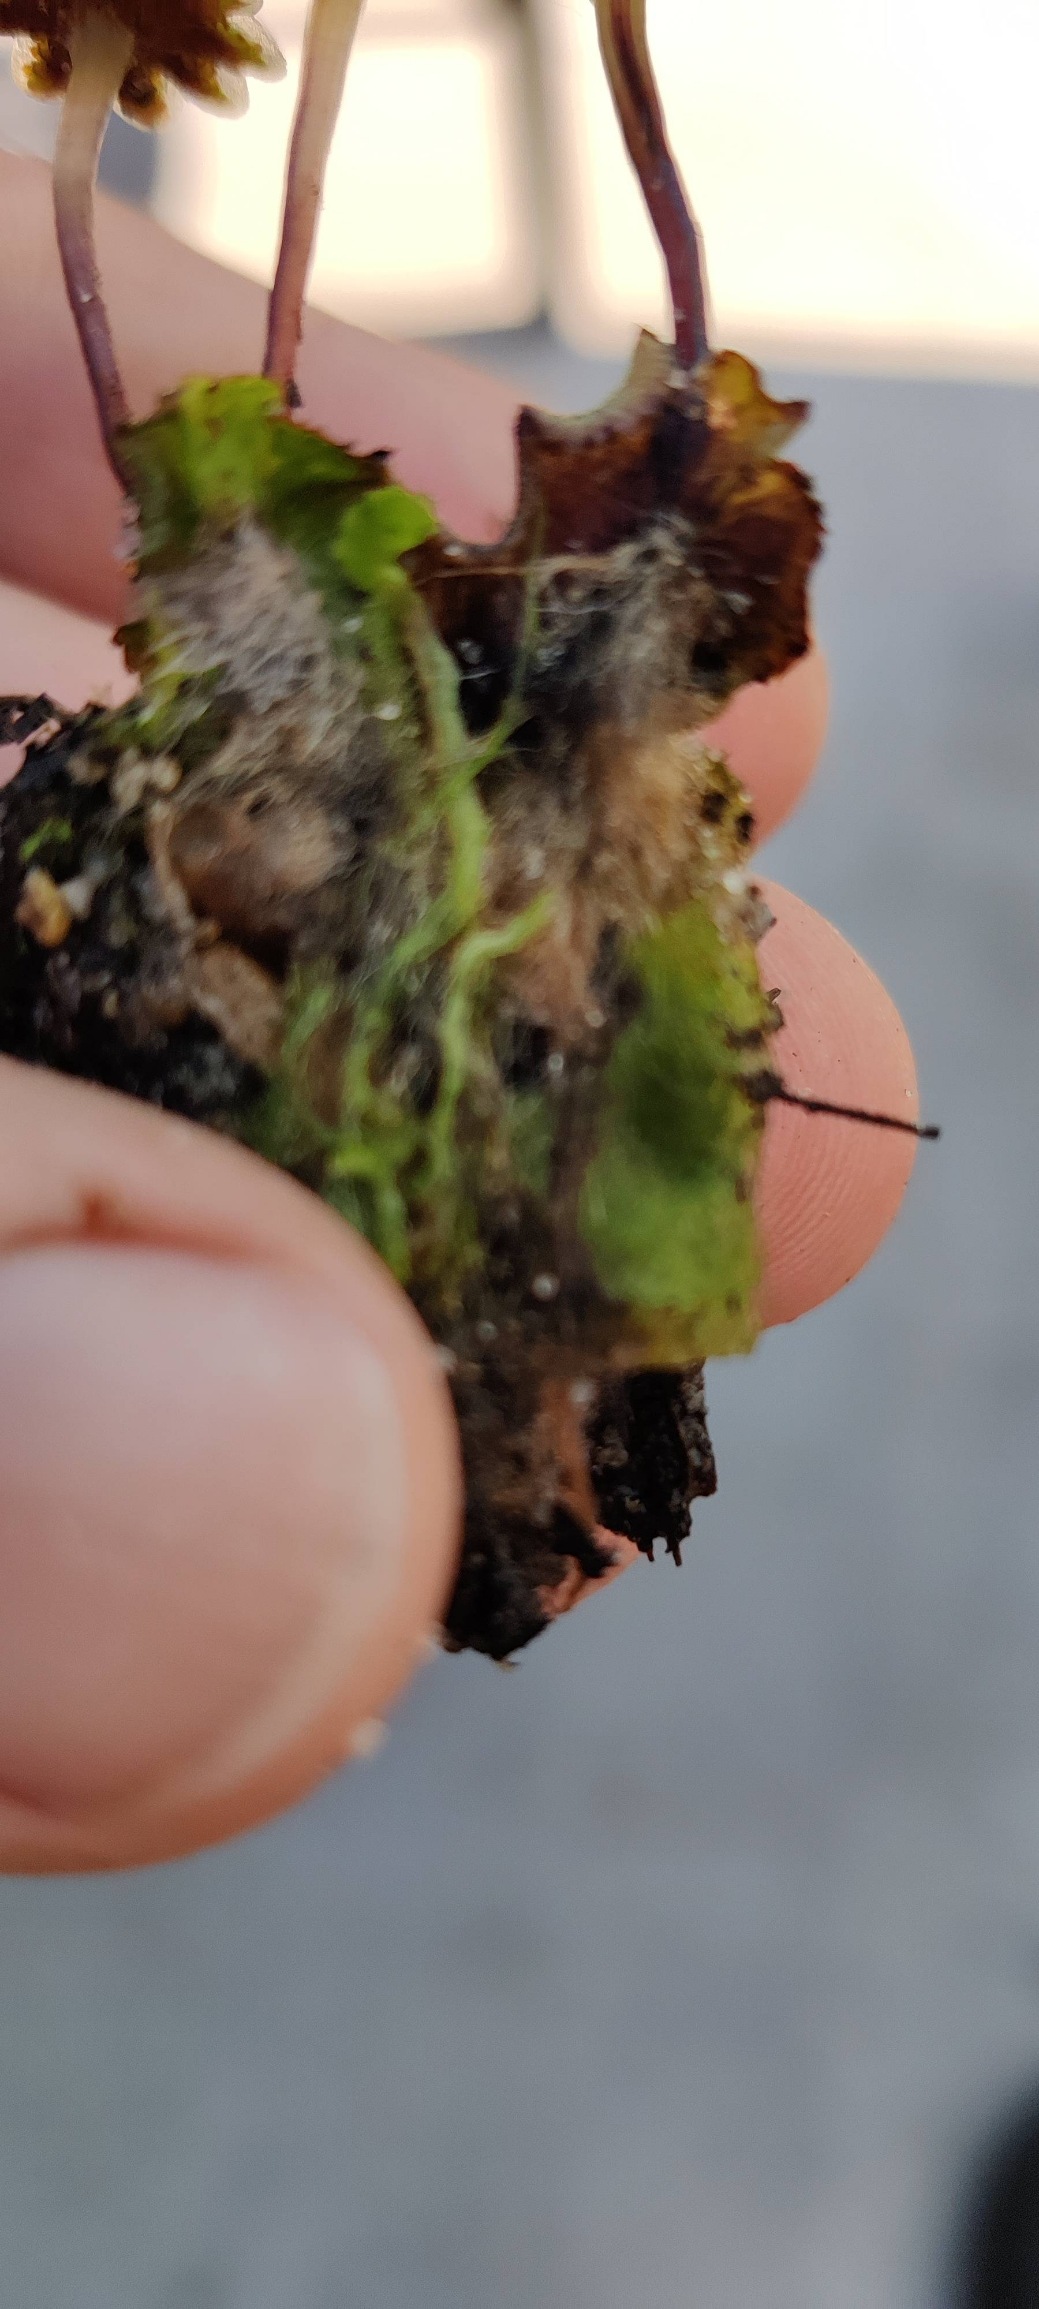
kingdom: Plantae
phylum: Marchantiophyta
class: Marchantiopsida
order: Marchantiales
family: Marchantiaceae
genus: Marchantia
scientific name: Marchantia polymorpha
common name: Almindelig lungemos (underart)
